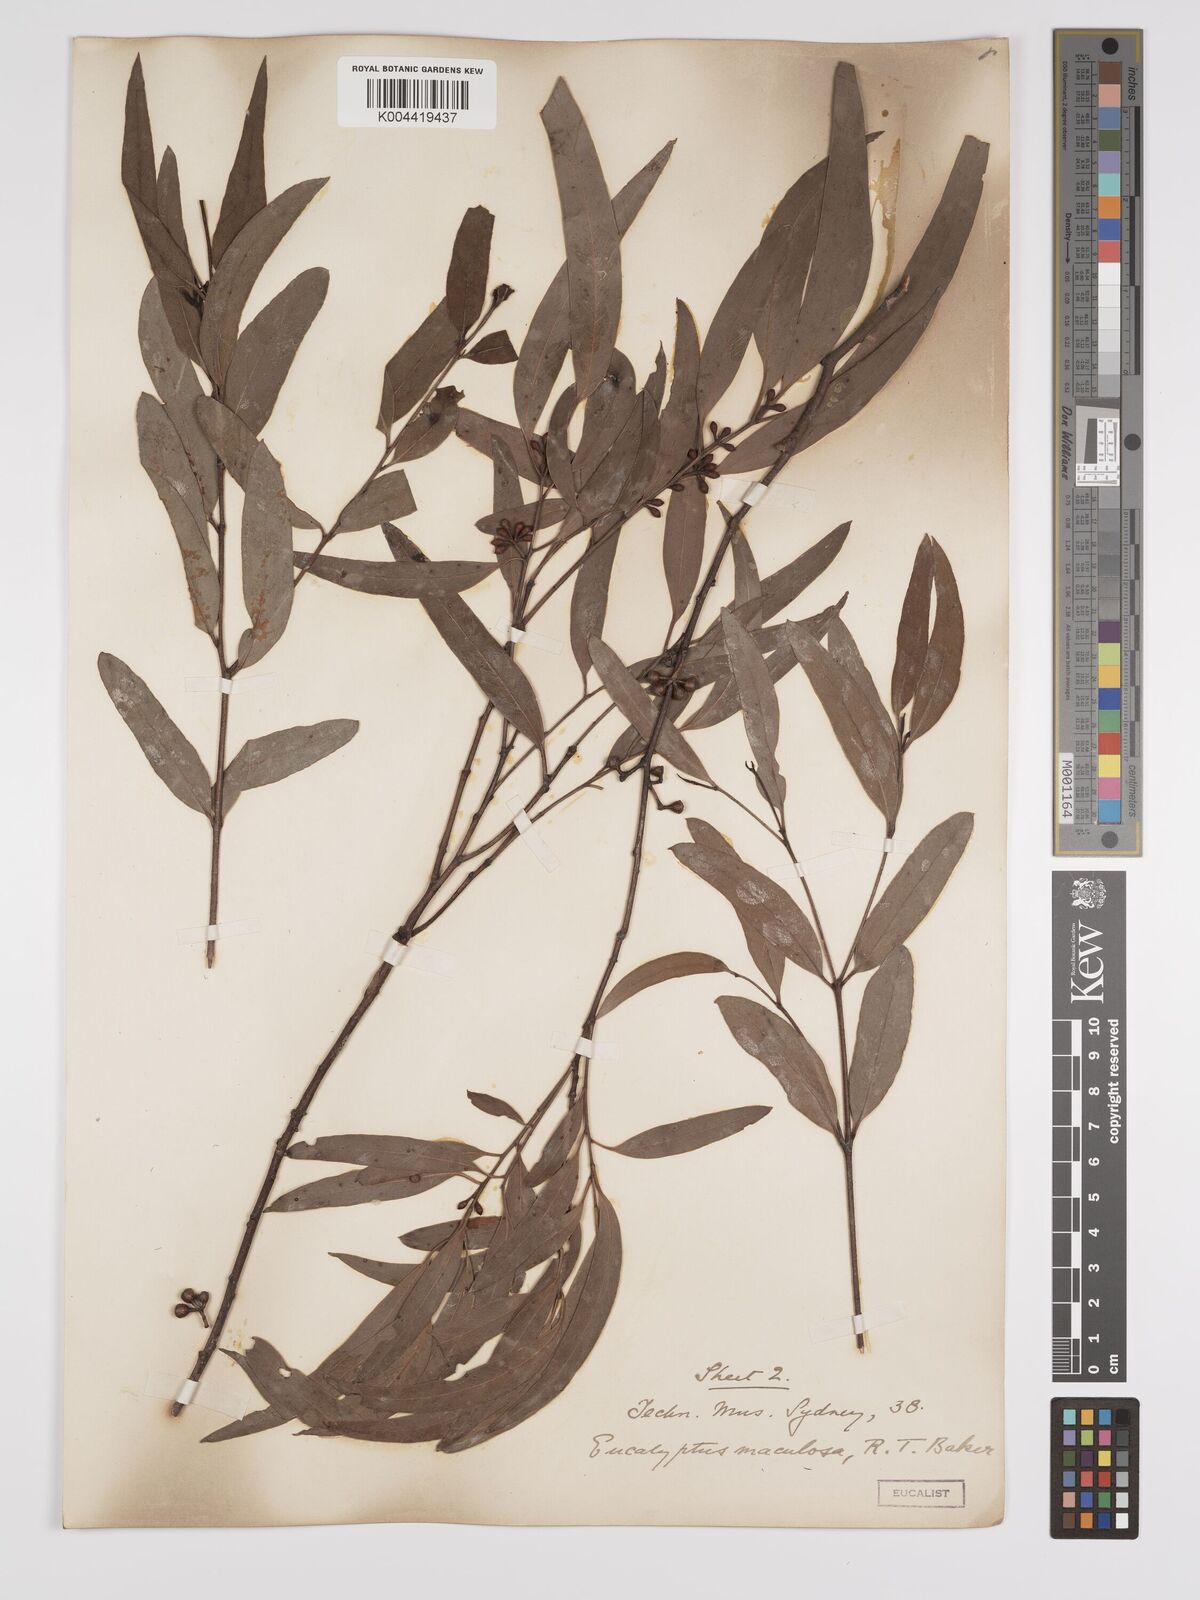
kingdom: Plantae
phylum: Tracheophyta
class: Magnoliopsida
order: Myrtales
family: Myrtaceae
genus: Eucalyptus
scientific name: Eucalyptus mannifera
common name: Manna gum
